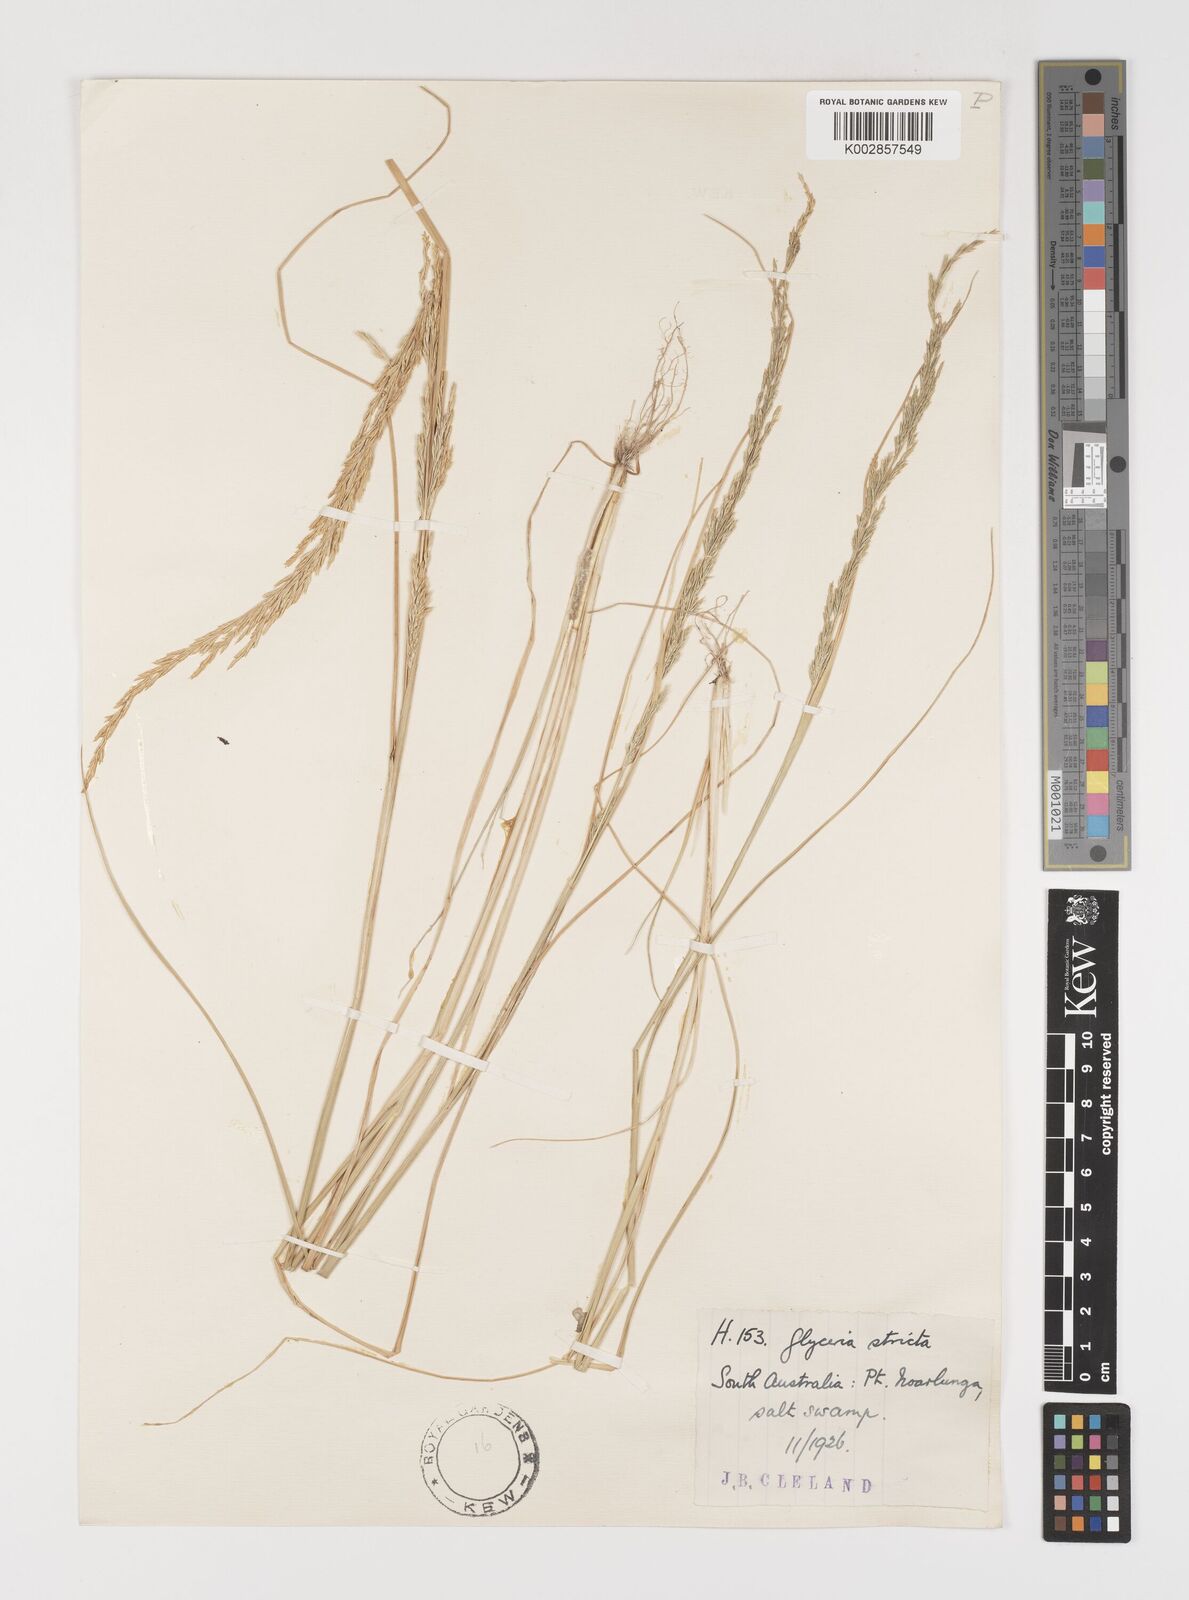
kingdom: Plantae
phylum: Tracheophyta
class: Liliopsida
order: Poales
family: Poaceae
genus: Puccinellia
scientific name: Puccinellia stricta
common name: Australian saltmarsh grass
